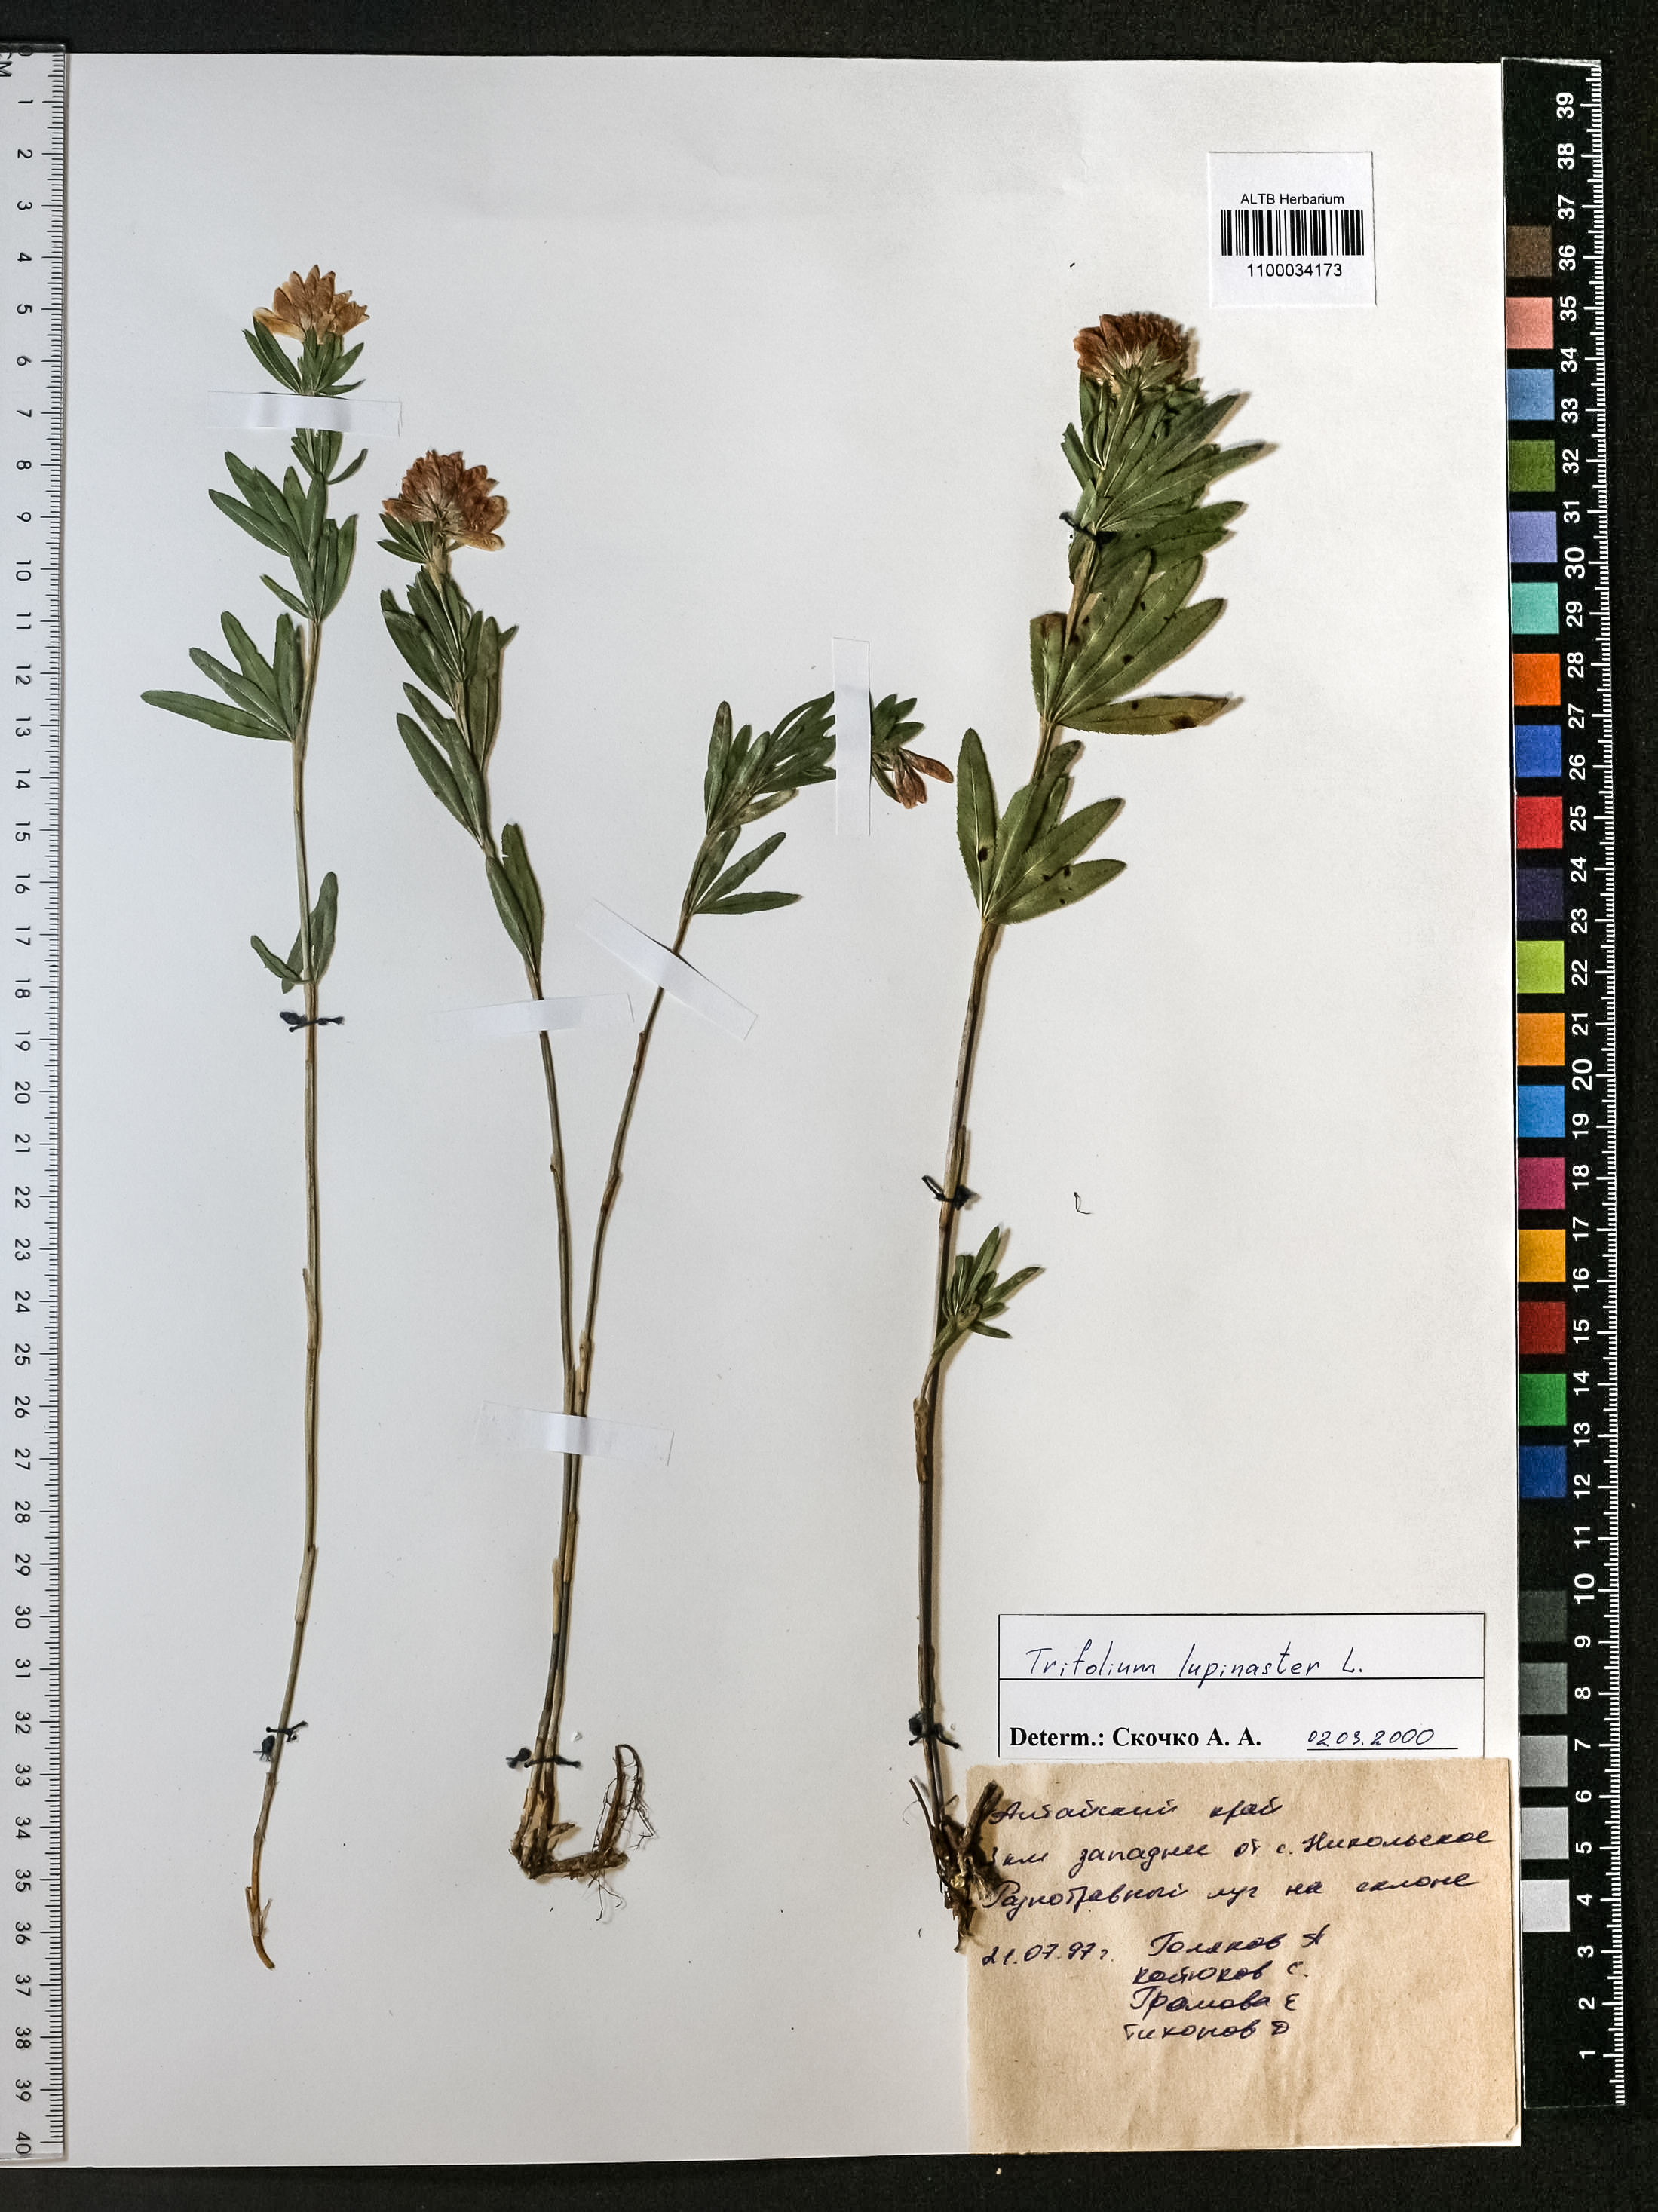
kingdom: Plantae
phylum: Tracheophyta
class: Magnoliopsida
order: Fabales
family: Fabaceae
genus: Trifolium
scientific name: Trifolium lupinaster
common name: Lupine clover
